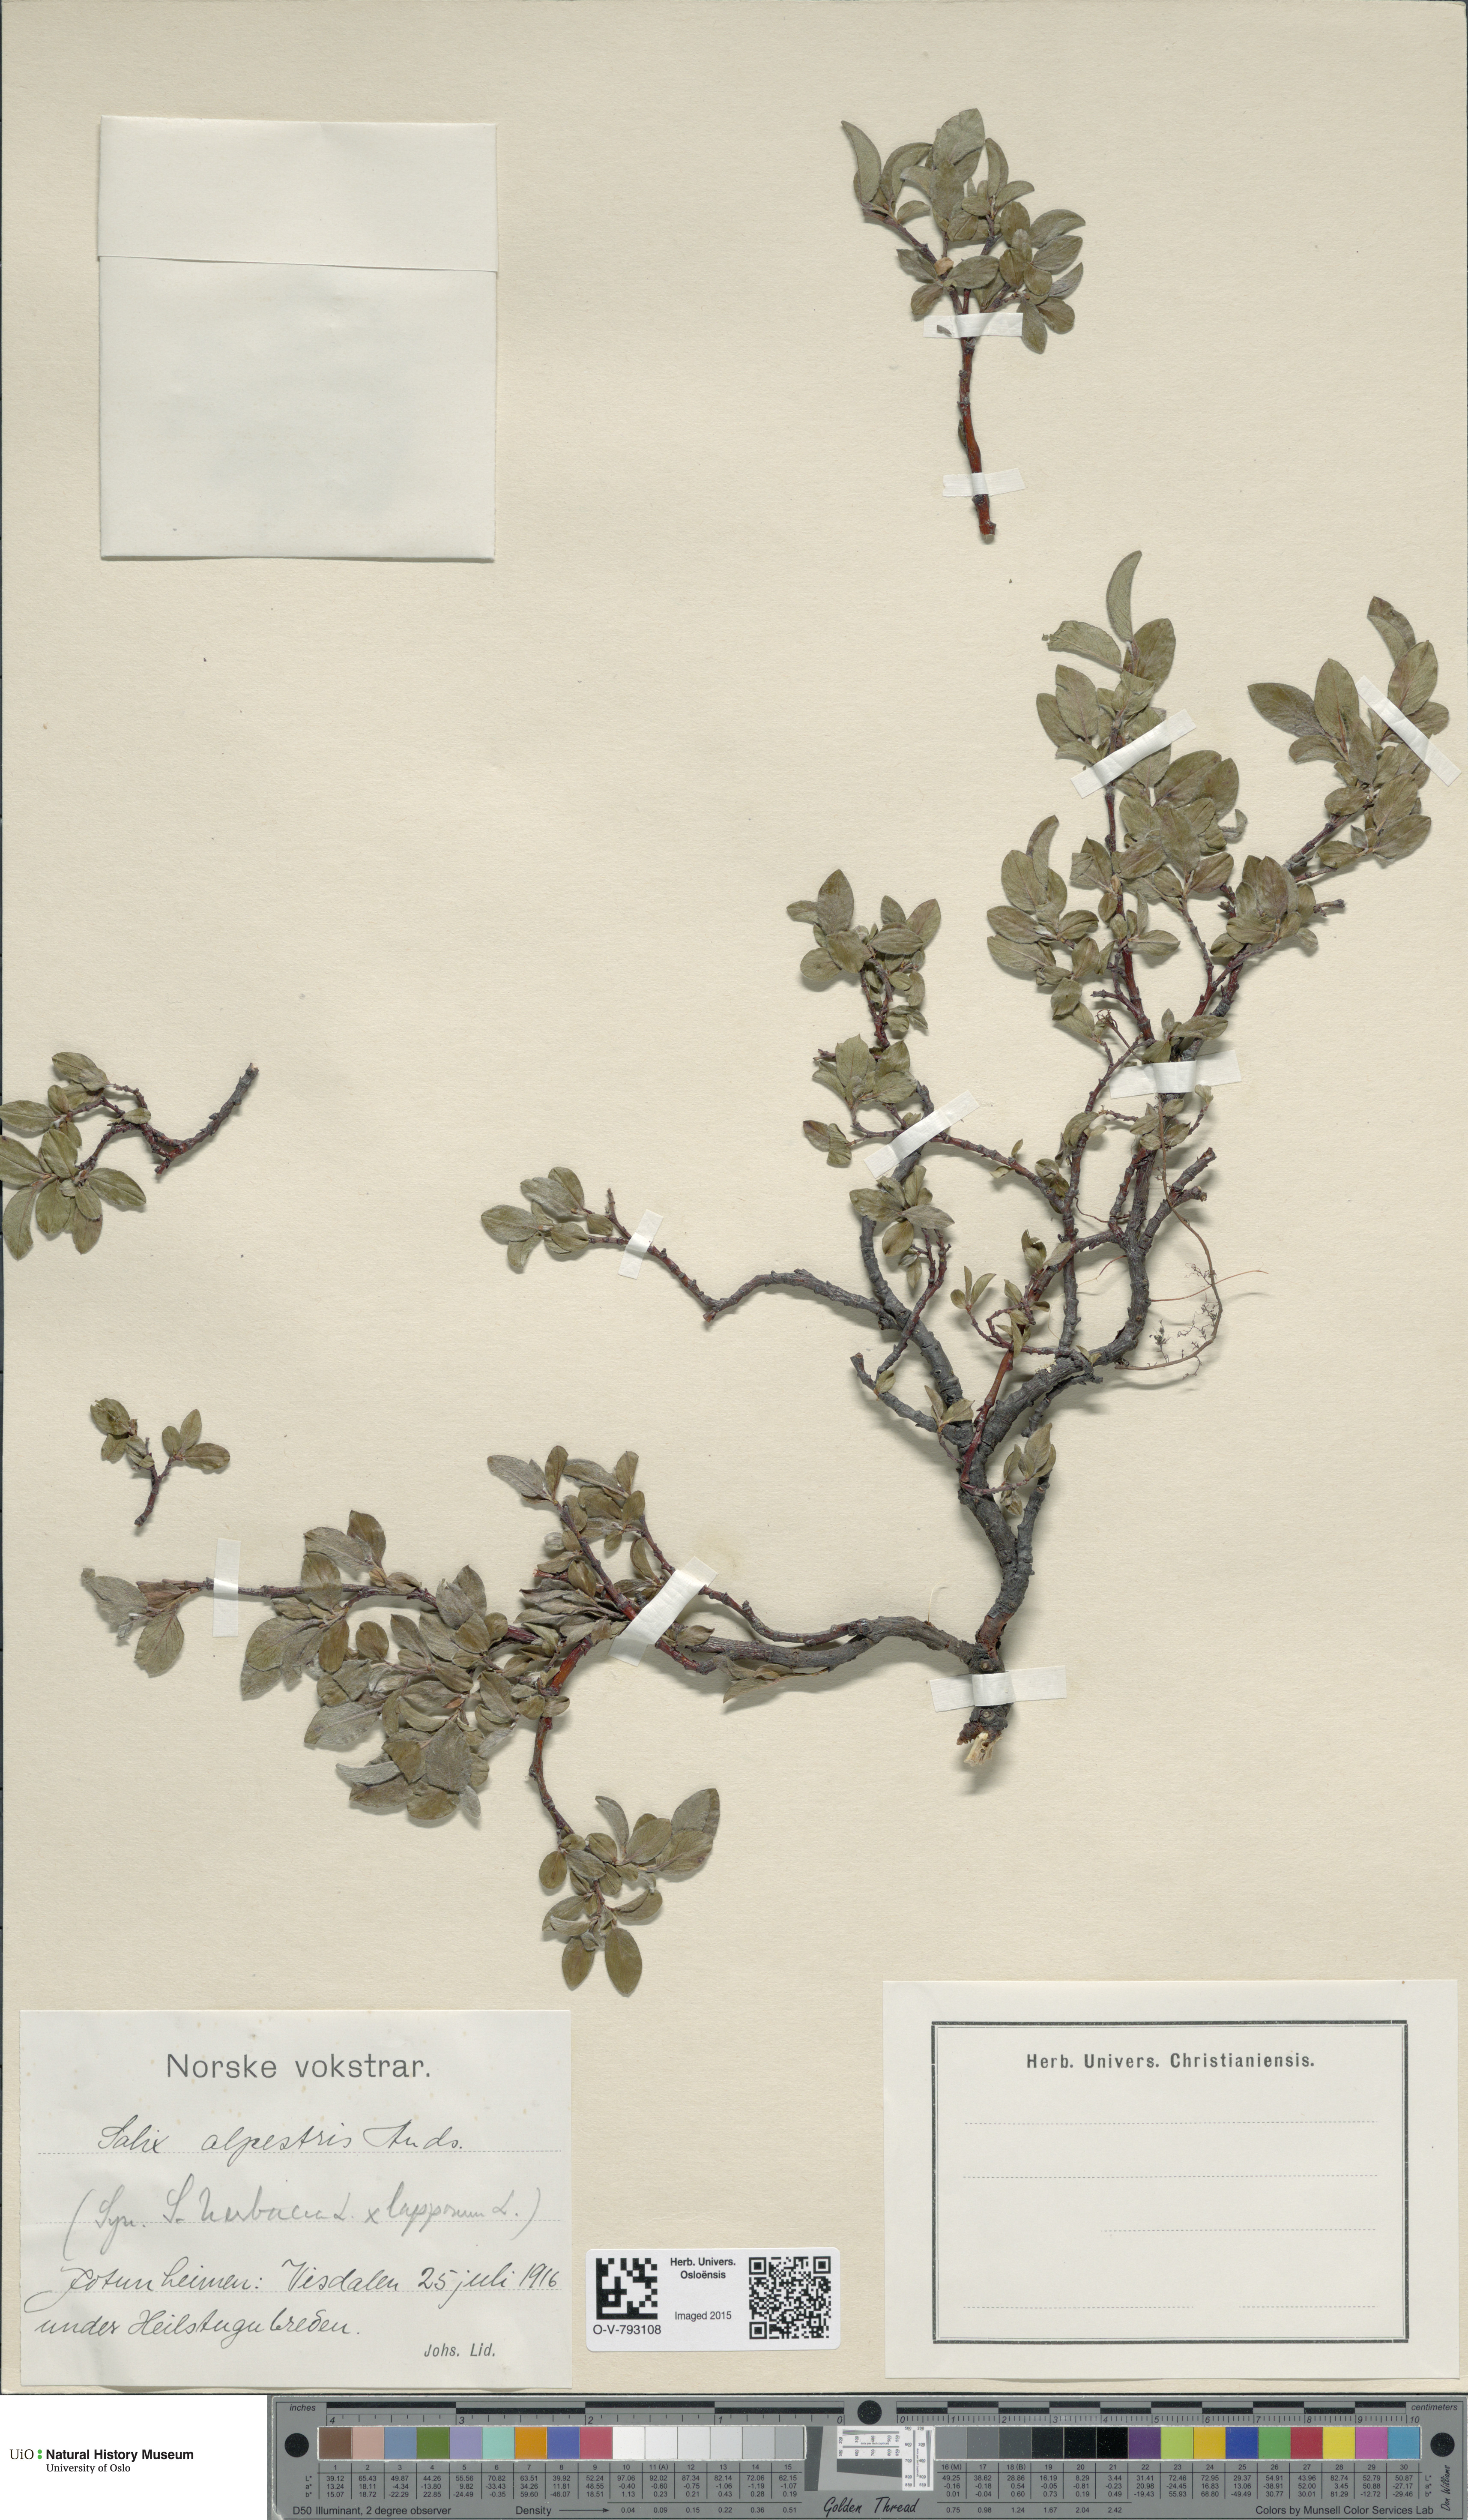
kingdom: Plantae
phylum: Tracheophyta
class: Magnoliopsida
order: Malpighiales
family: Salicaceae
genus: Salix
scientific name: Salix
